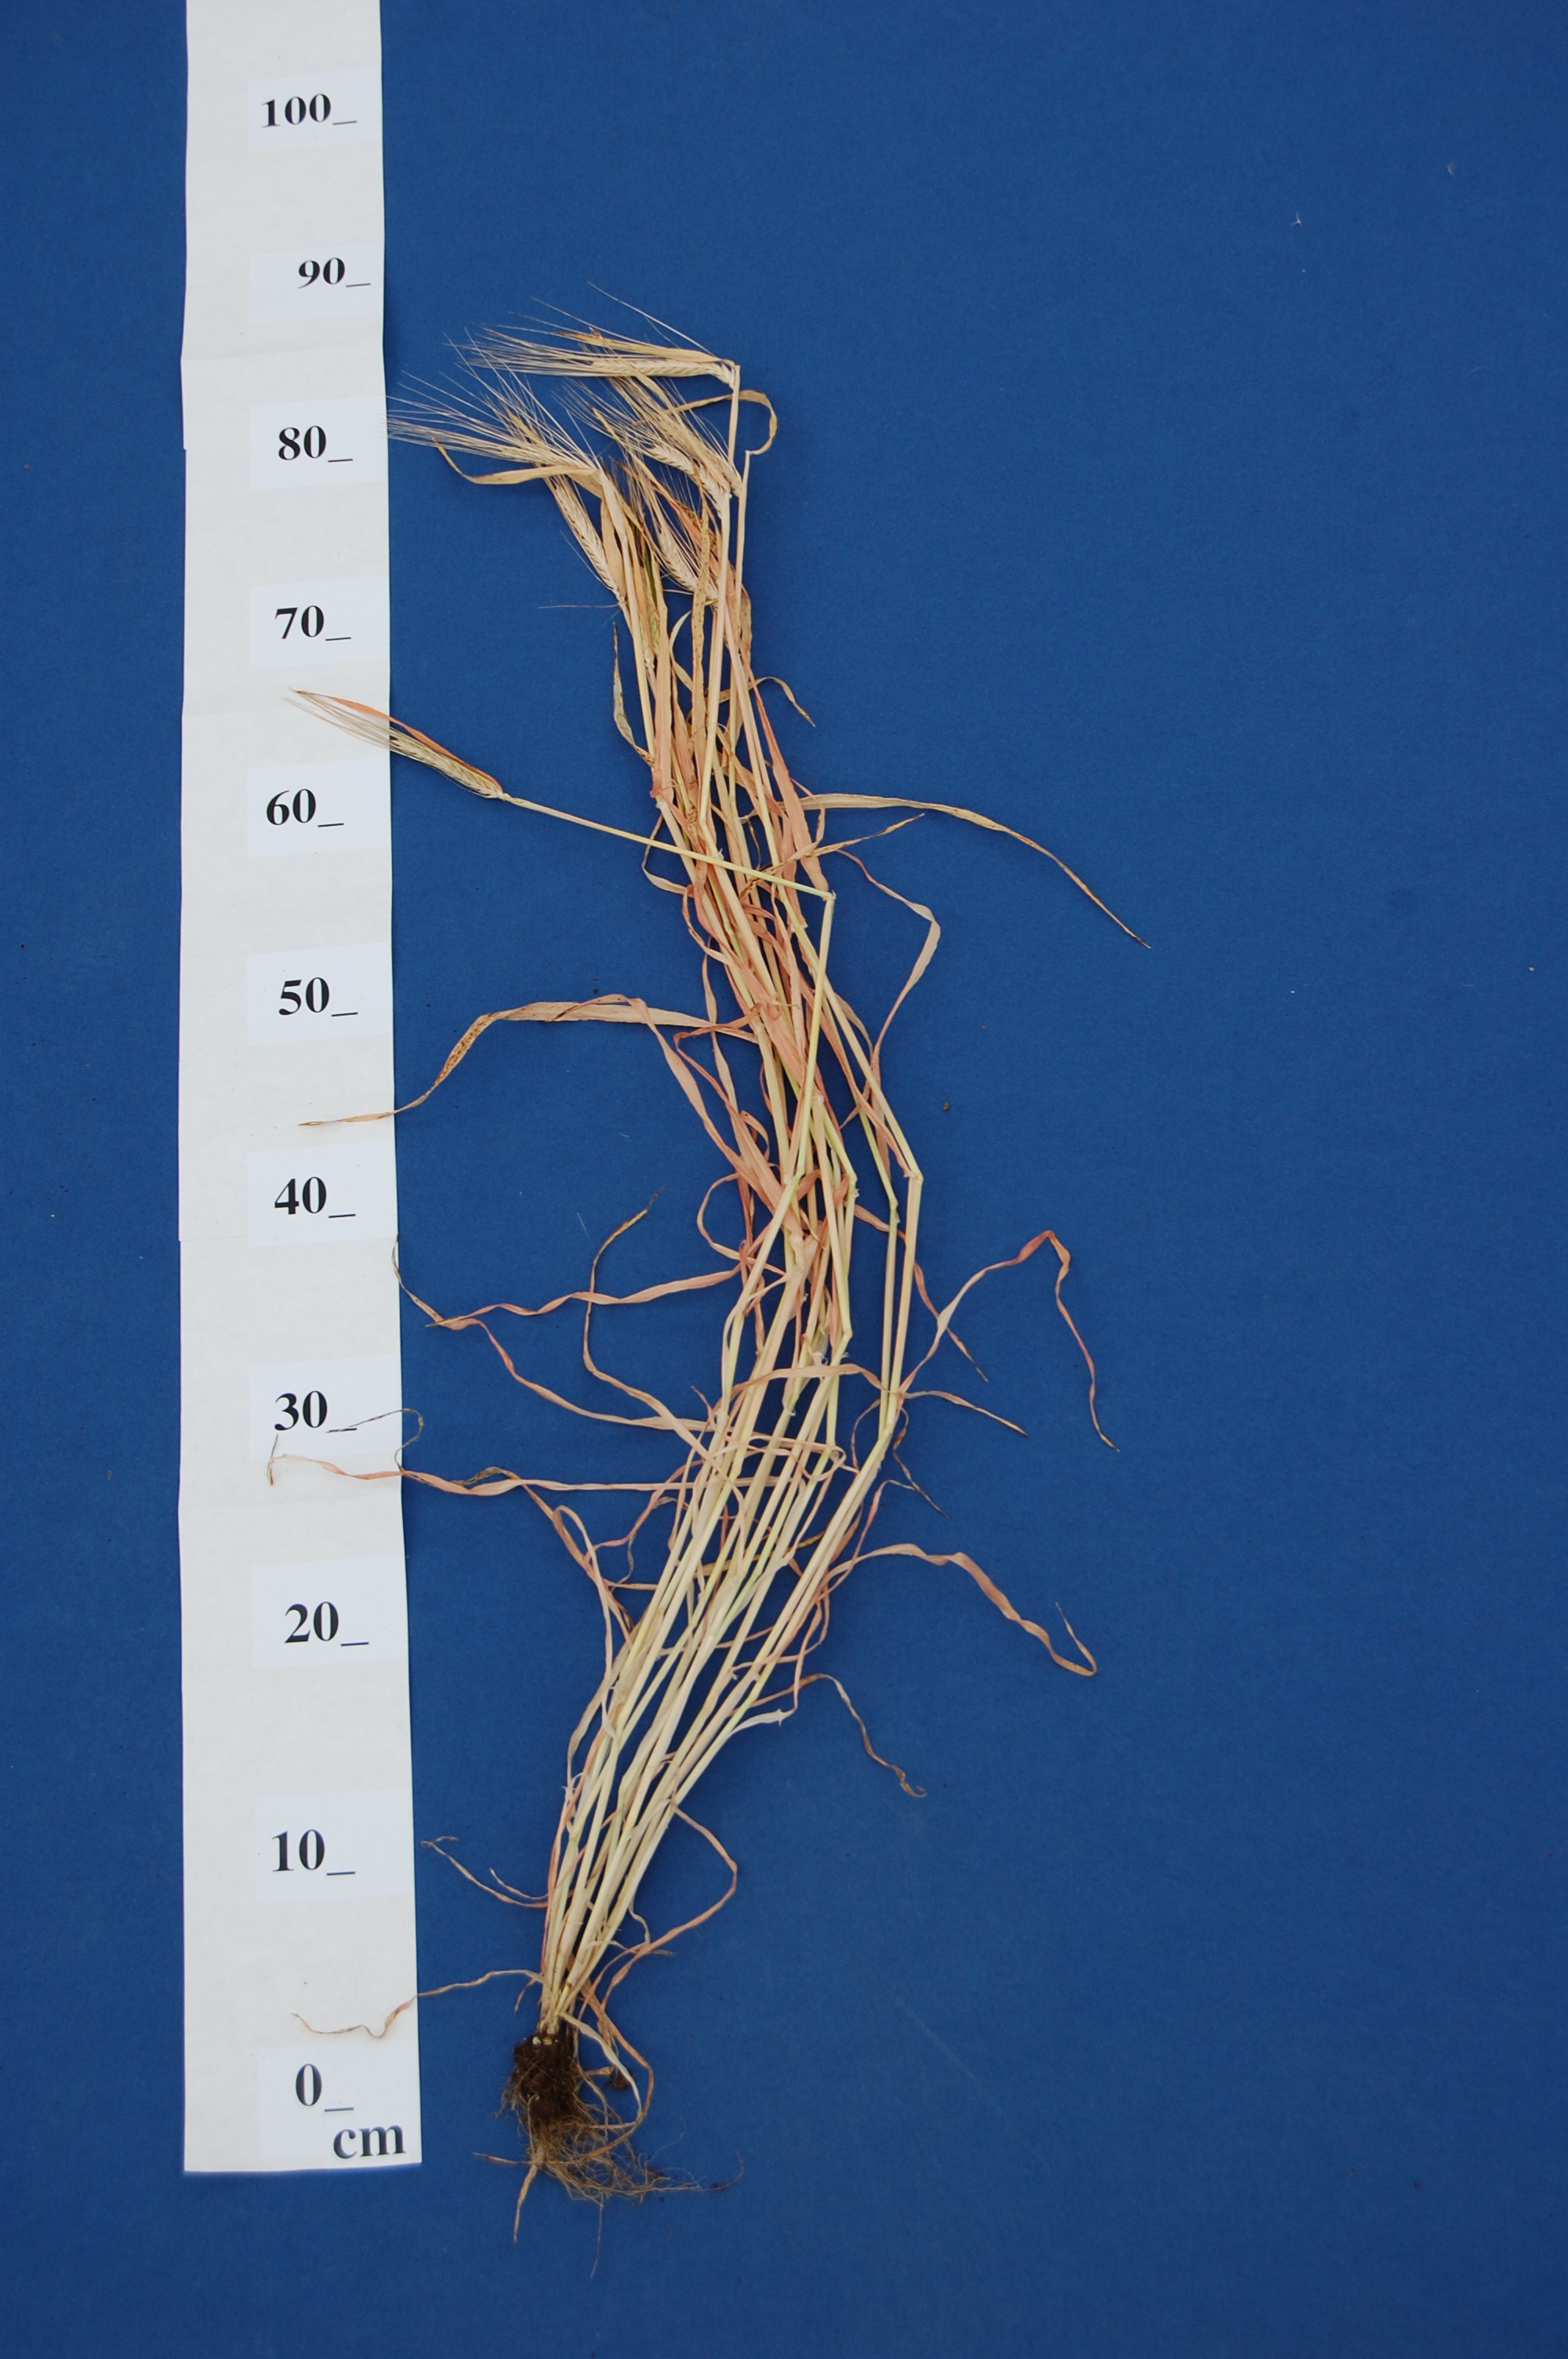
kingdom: Plantae
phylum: Tracheophyta
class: Liliopsida
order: Poales
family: Poaceae
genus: Hordeum
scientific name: Hordeum vulgare
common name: Common barley
